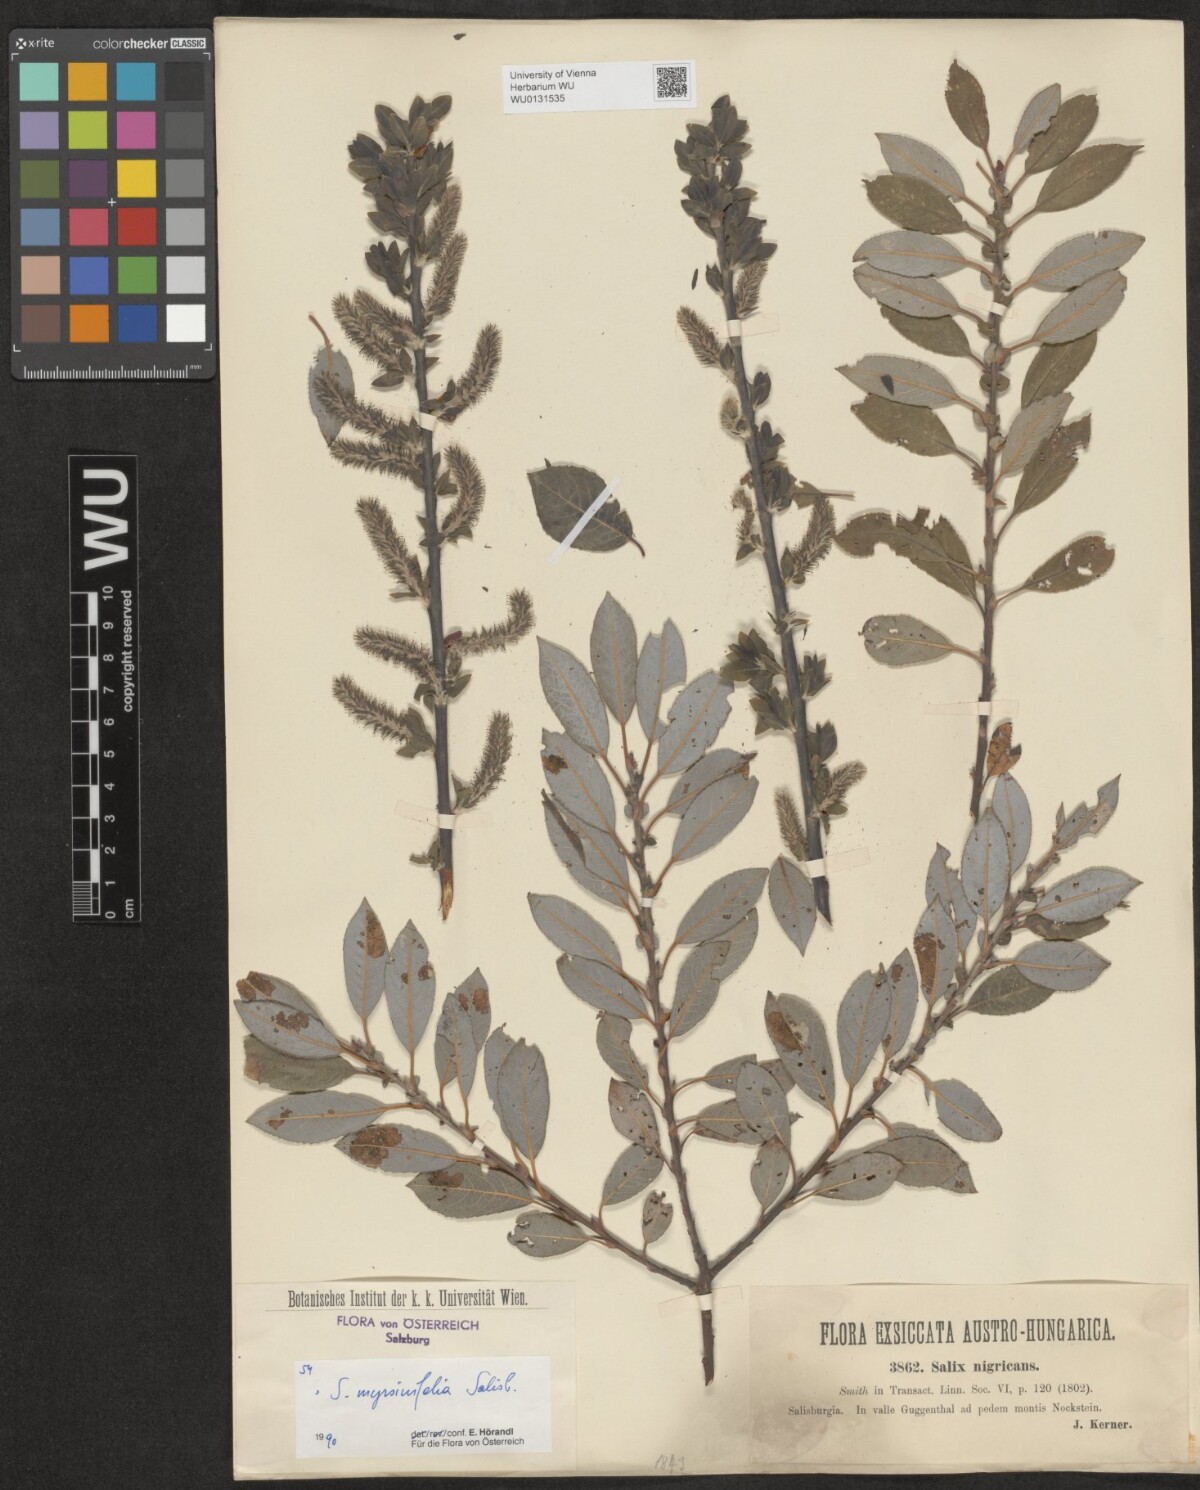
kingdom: Plantae
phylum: Tracheophyta
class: Magnoliopsida
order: Malpighiales
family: Salicaceae
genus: Salix
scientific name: Salix myrsinifolia
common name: Dark-leaved willow
